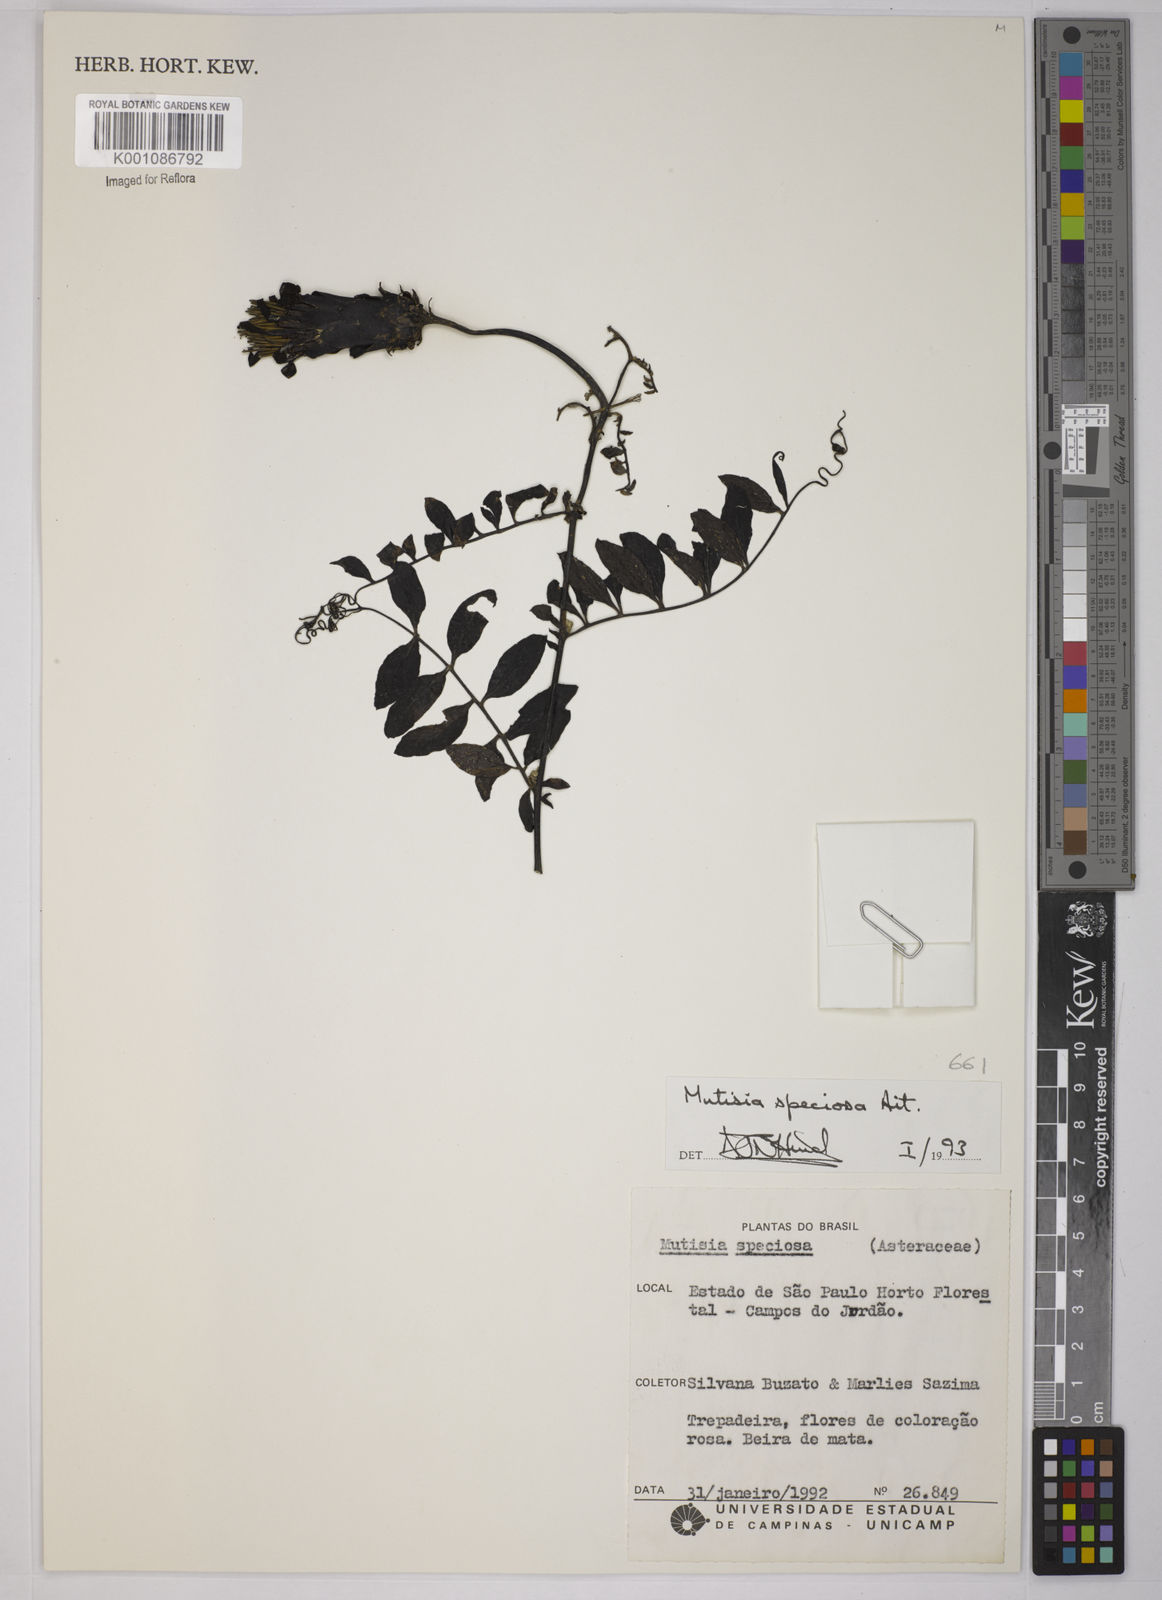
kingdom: Plantae
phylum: Tracheophyta
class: Magnoliopsida
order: Asterales
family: Asteraceae
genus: Mutisia
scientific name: Mutisia speciosa
